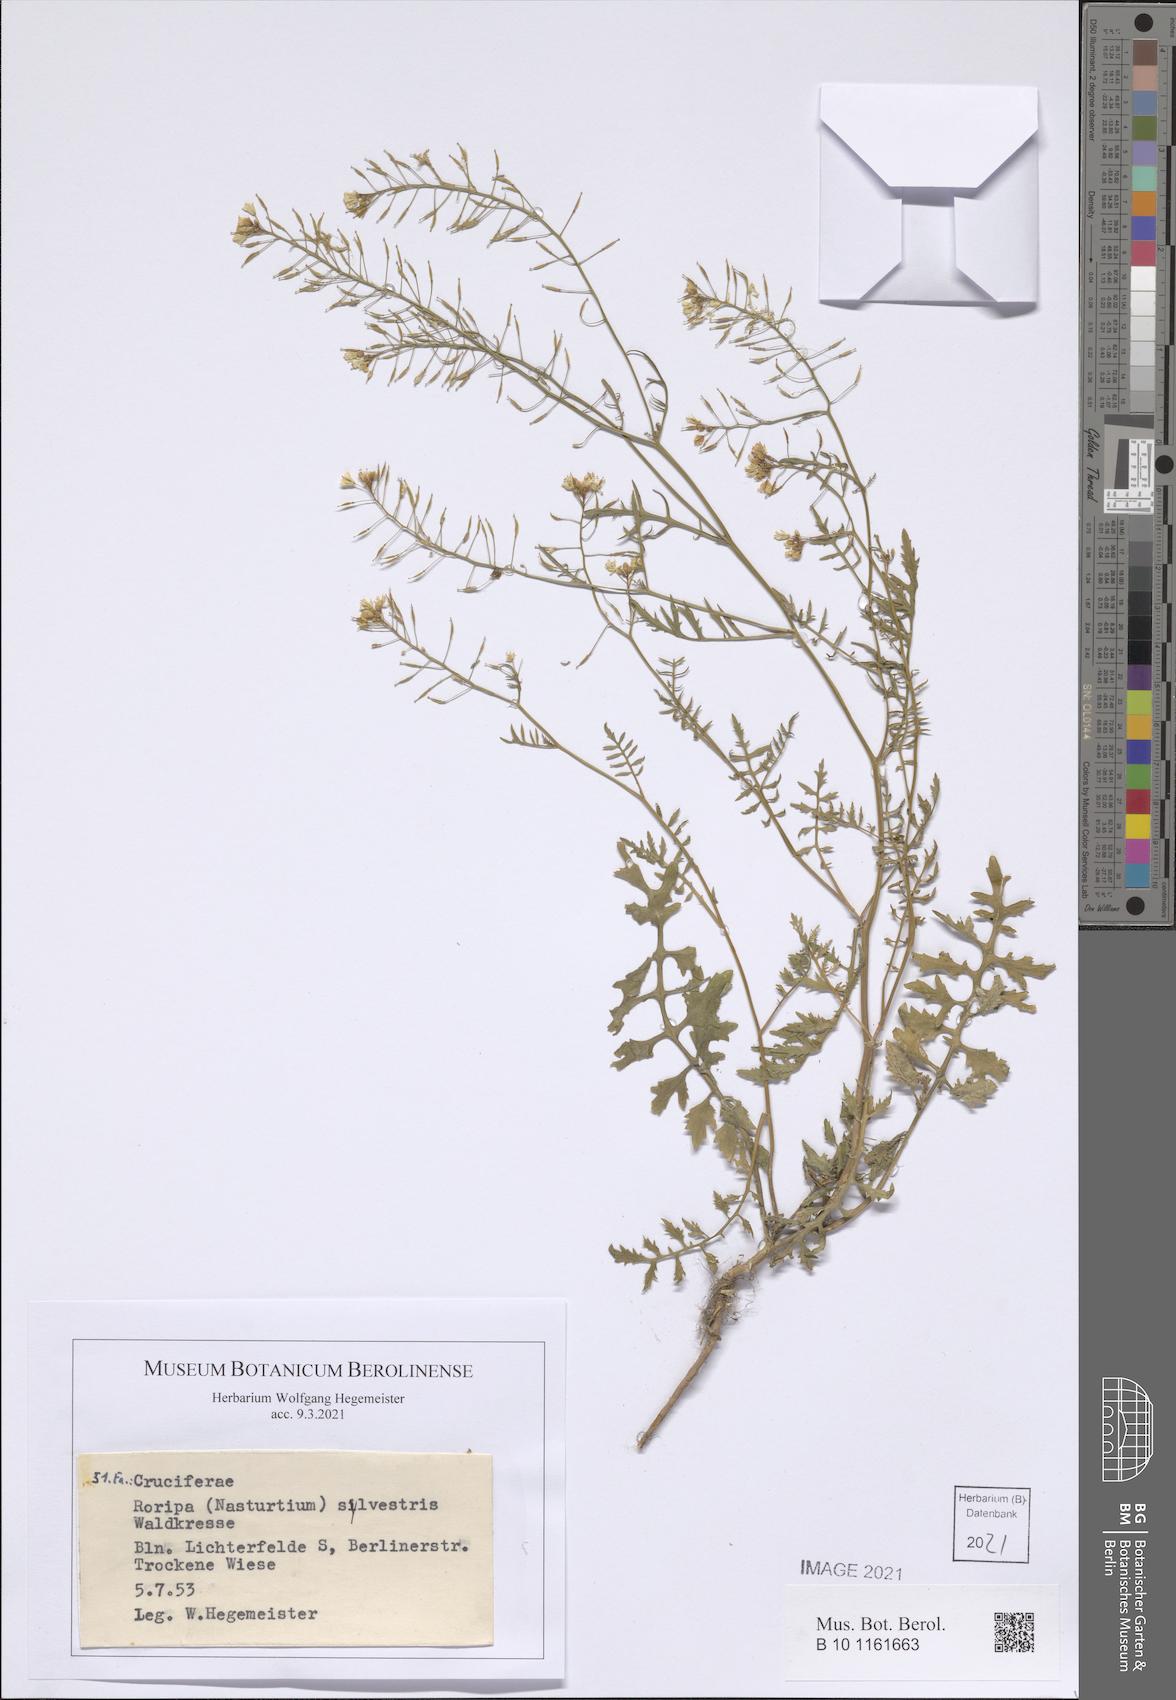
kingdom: Plantae
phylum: Tracheophyta
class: Magnoliopsida
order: Brassicales
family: Brassicaceae
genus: Rorippa
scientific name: Rorippa sylvestris
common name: Creeping yellowcress
